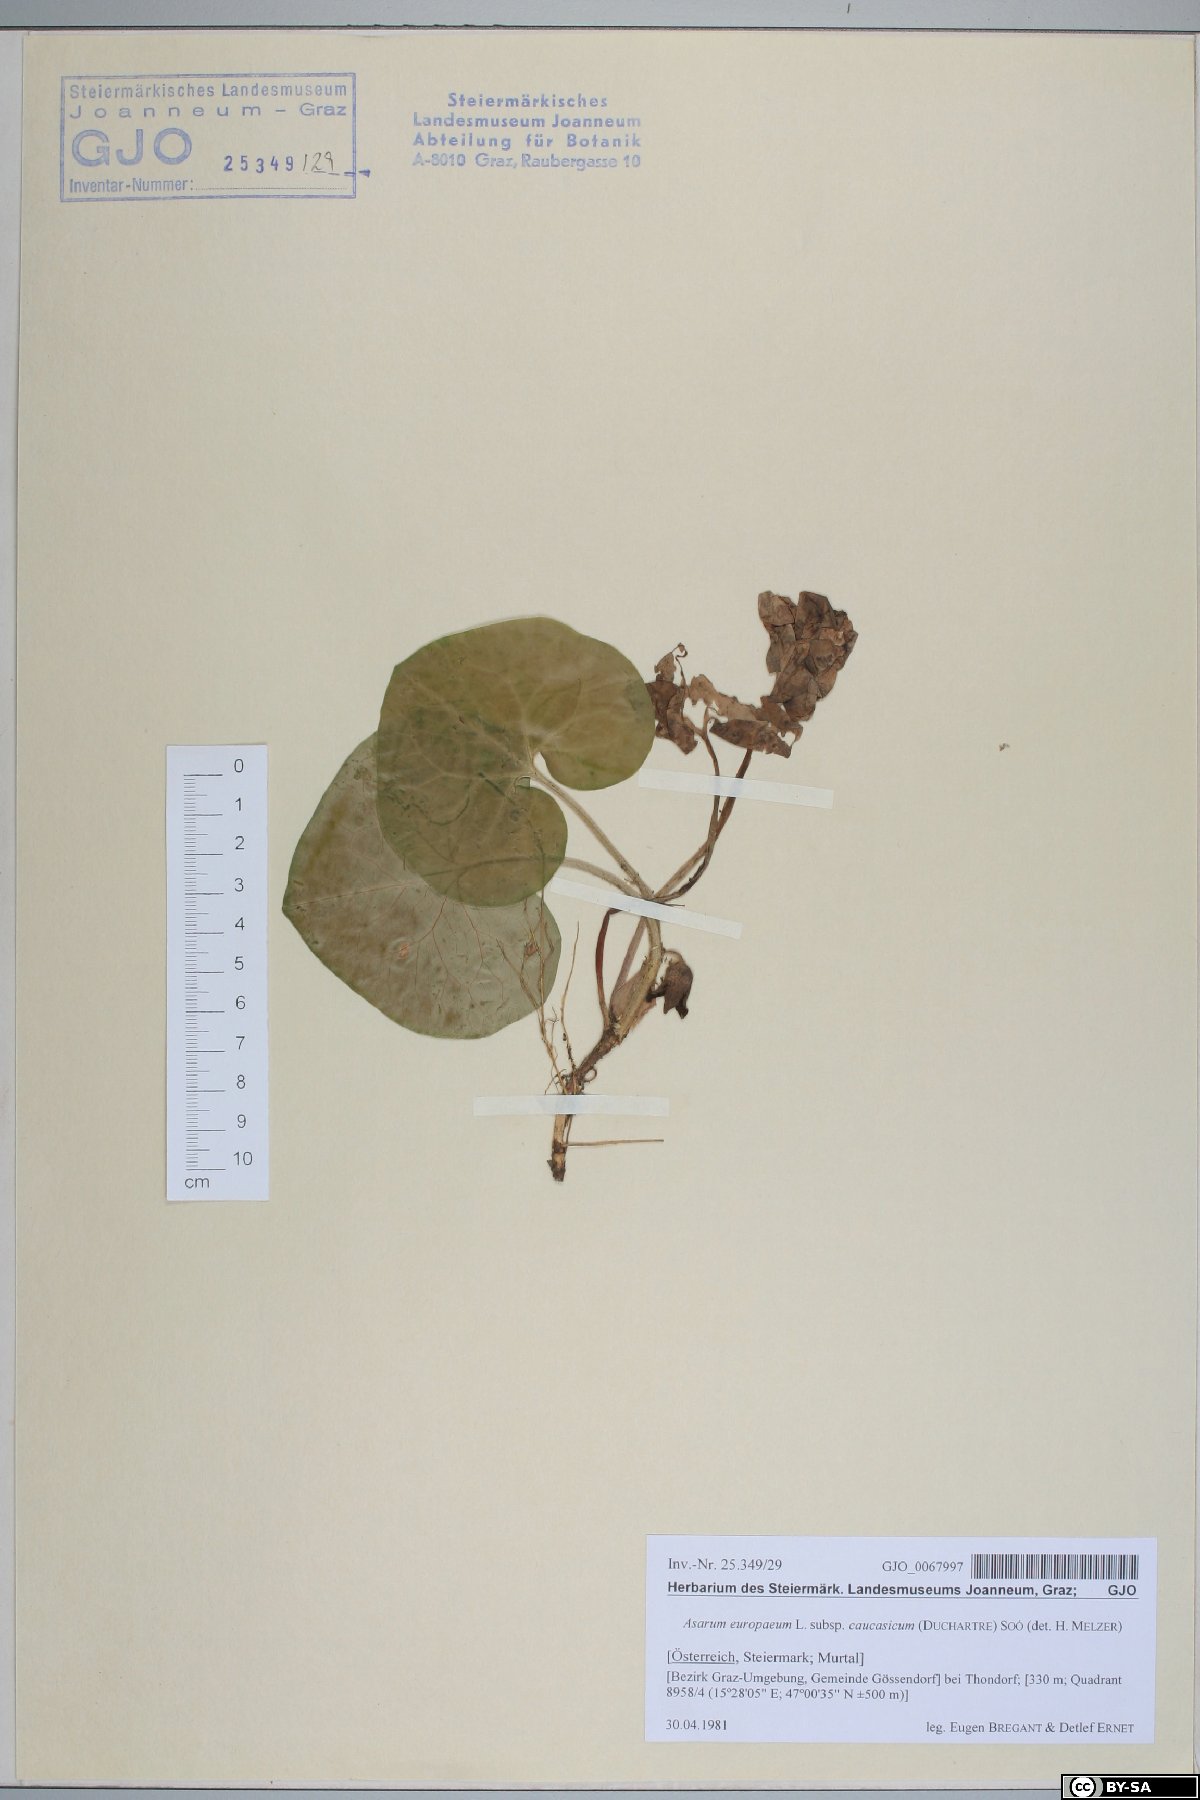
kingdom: Plantae
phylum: Tracheophyta
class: Magnoliopsida
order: Piperales
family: Aristolochiaceae
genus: Asarum
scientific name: Asarum europaeum
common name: Asarabacca
